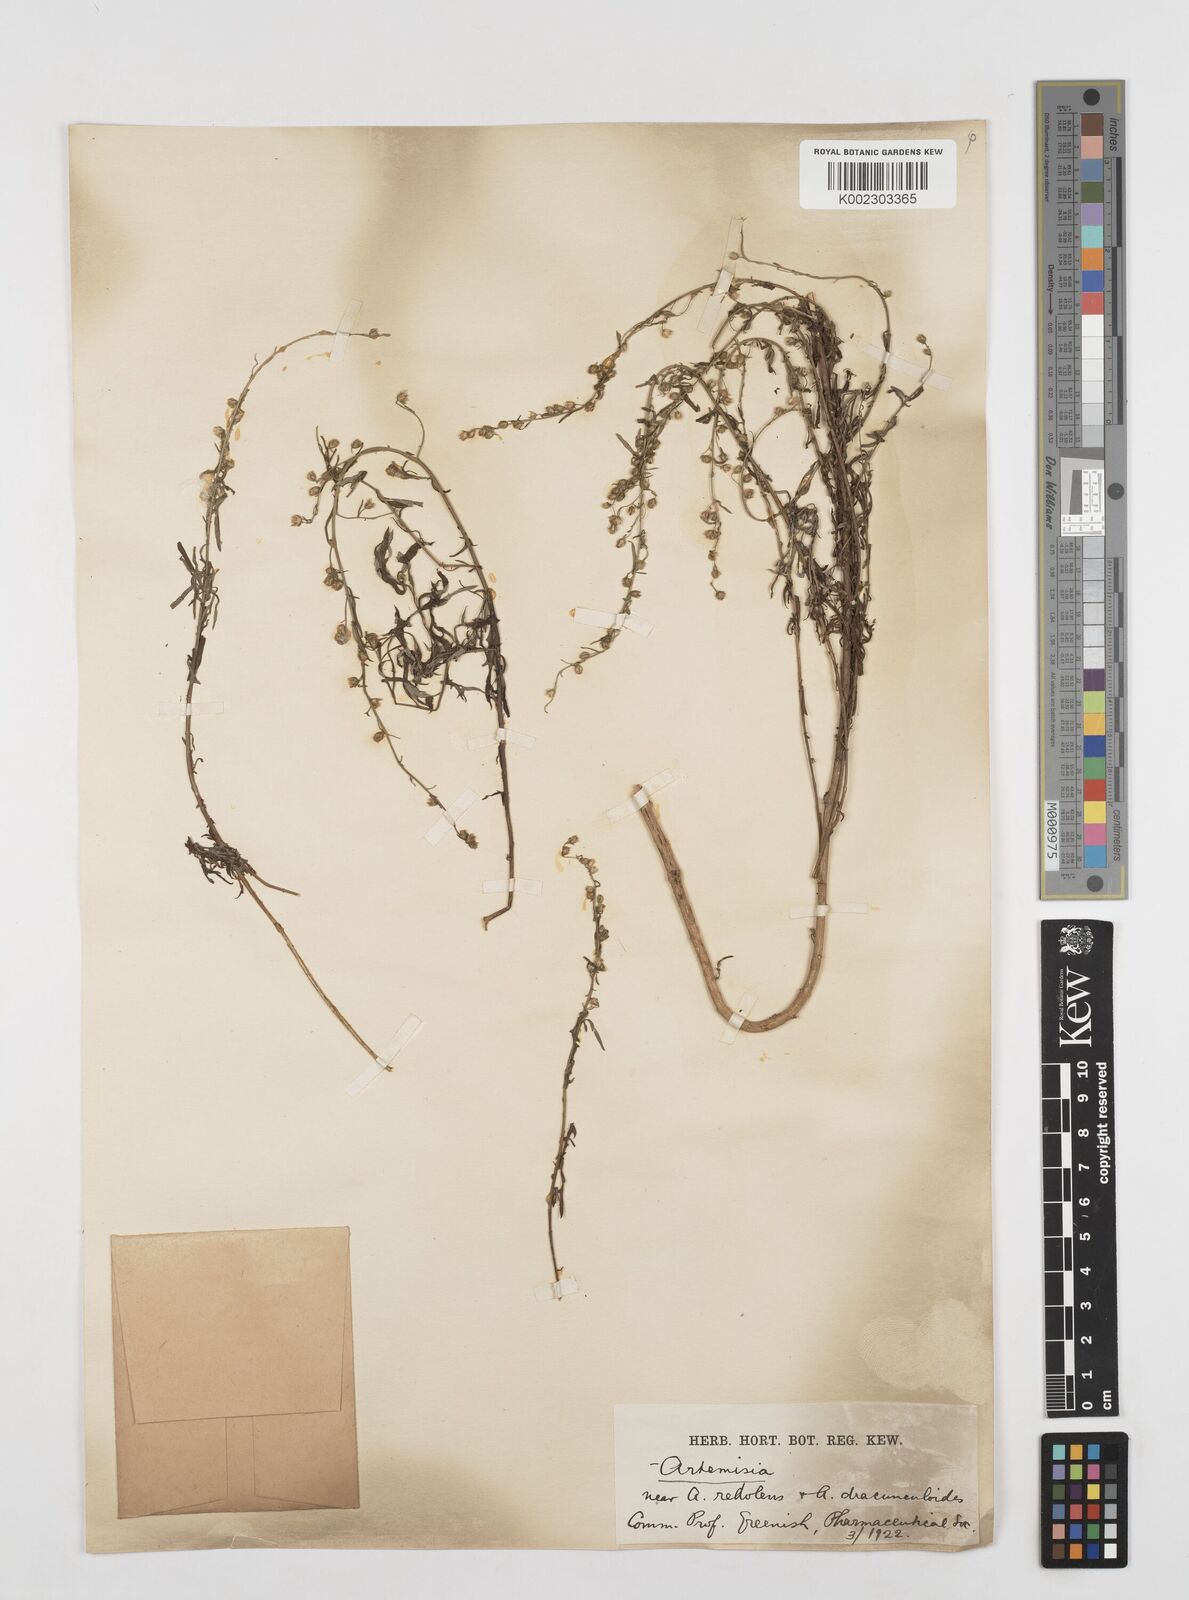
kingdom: Plantae
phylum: Tracheophyta
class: Magnoliopsida
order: Asterales
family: Asteraceae
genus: Artemisia
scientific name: Artemisia
